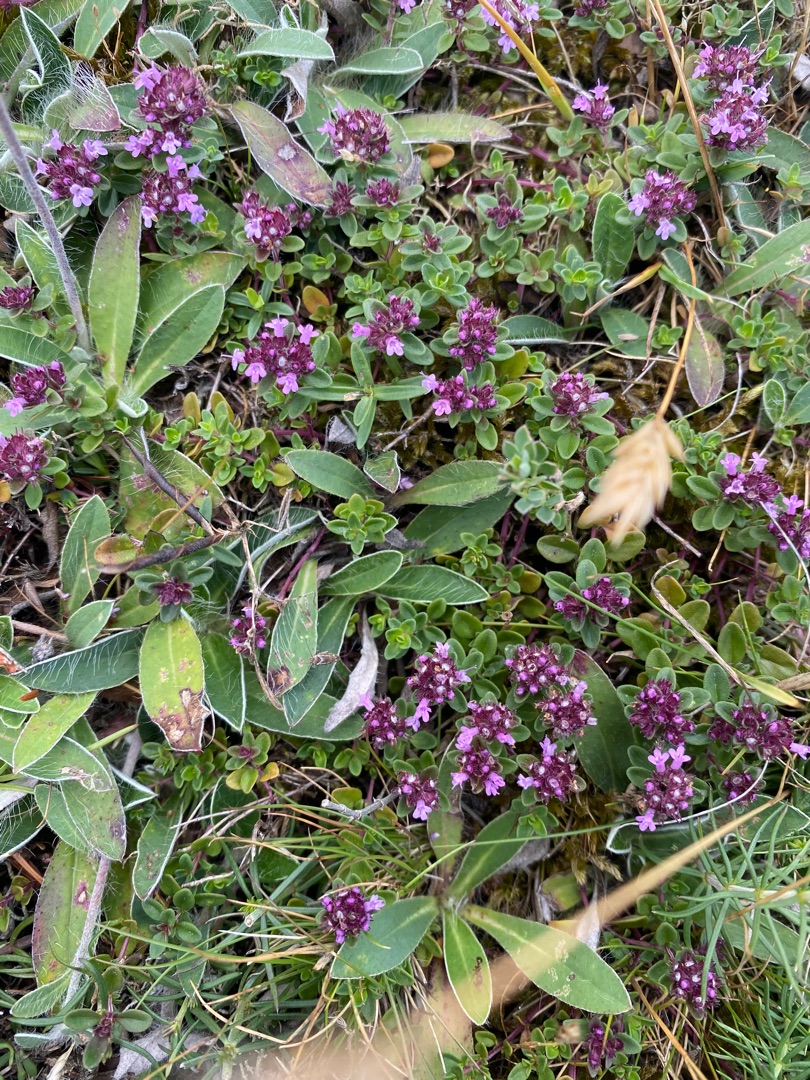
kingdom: Plantae
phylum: Tracheophyta
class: Magnoliopsida
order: Lamiales
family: Lamiaceae
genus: Thymus
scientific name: Thymus pulegioides
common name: Bredbladet timian
